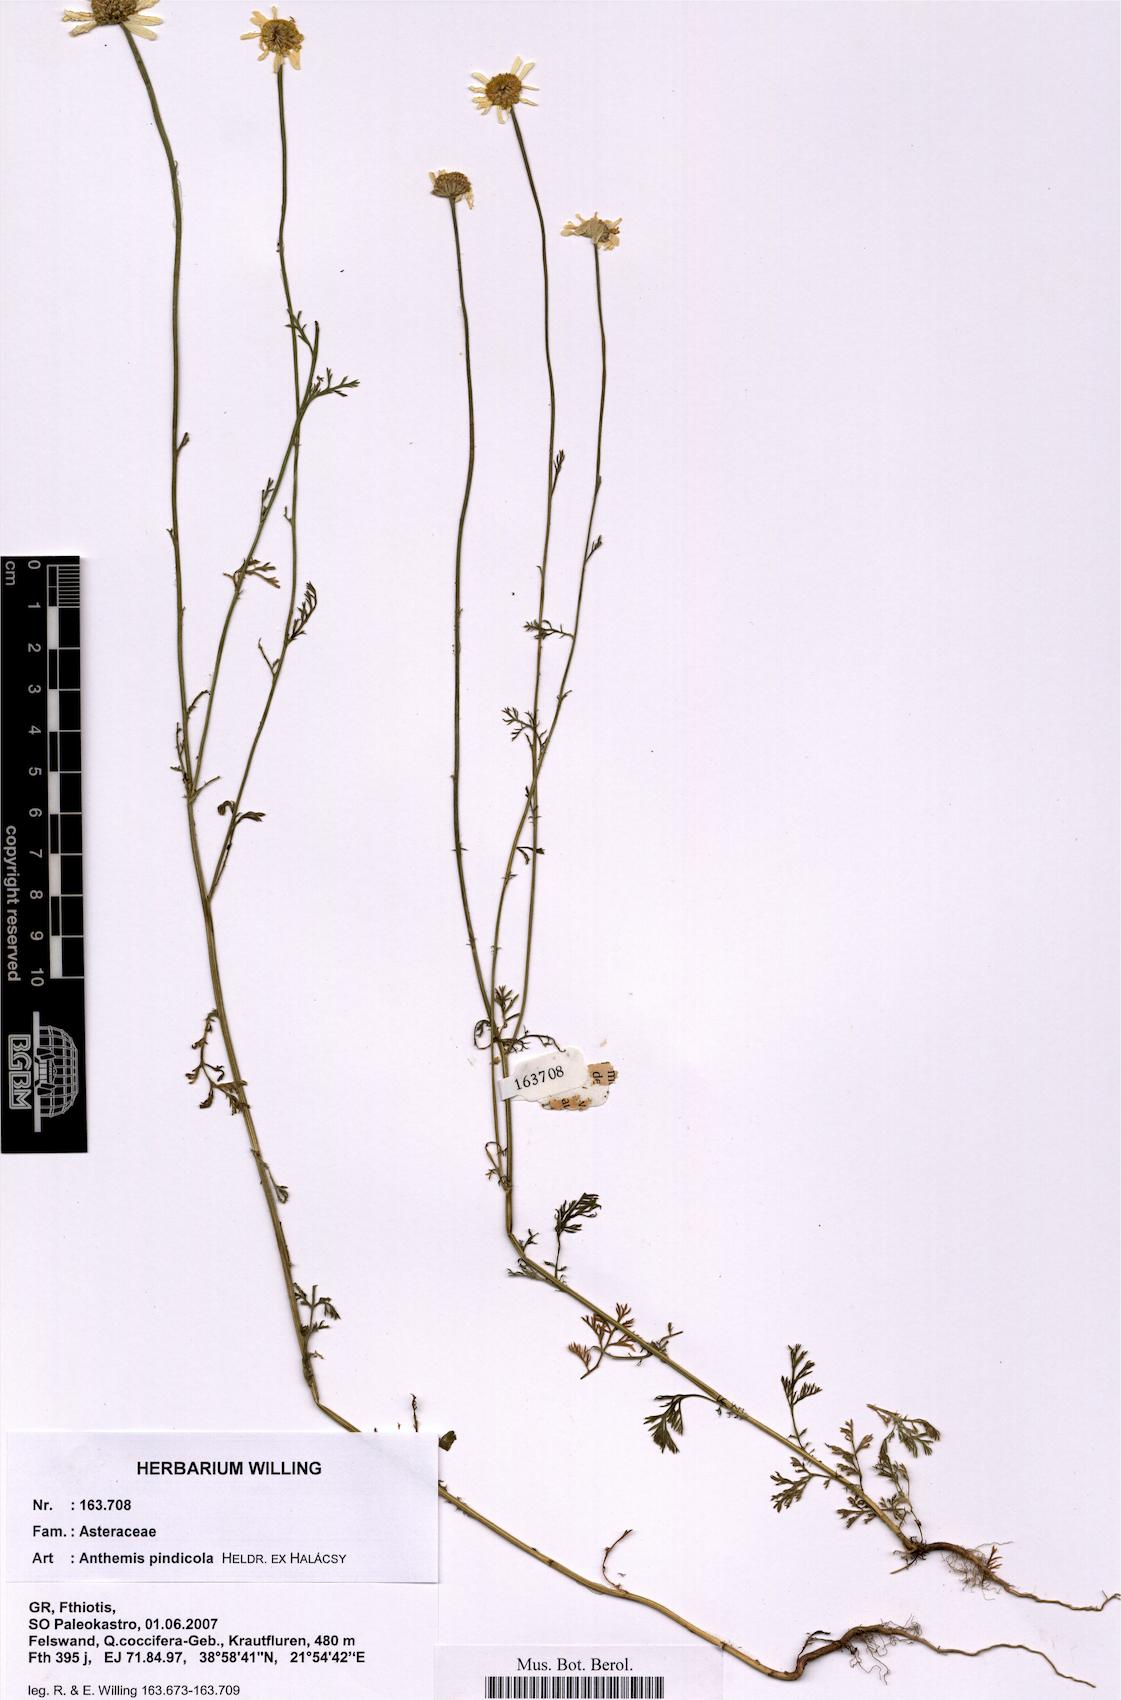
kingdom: Plantae
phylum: Tracheophyta
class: Magnoliopsida
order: Asterales
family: Asteraceae
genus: Anthemis
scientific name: Anthemis pindicola
